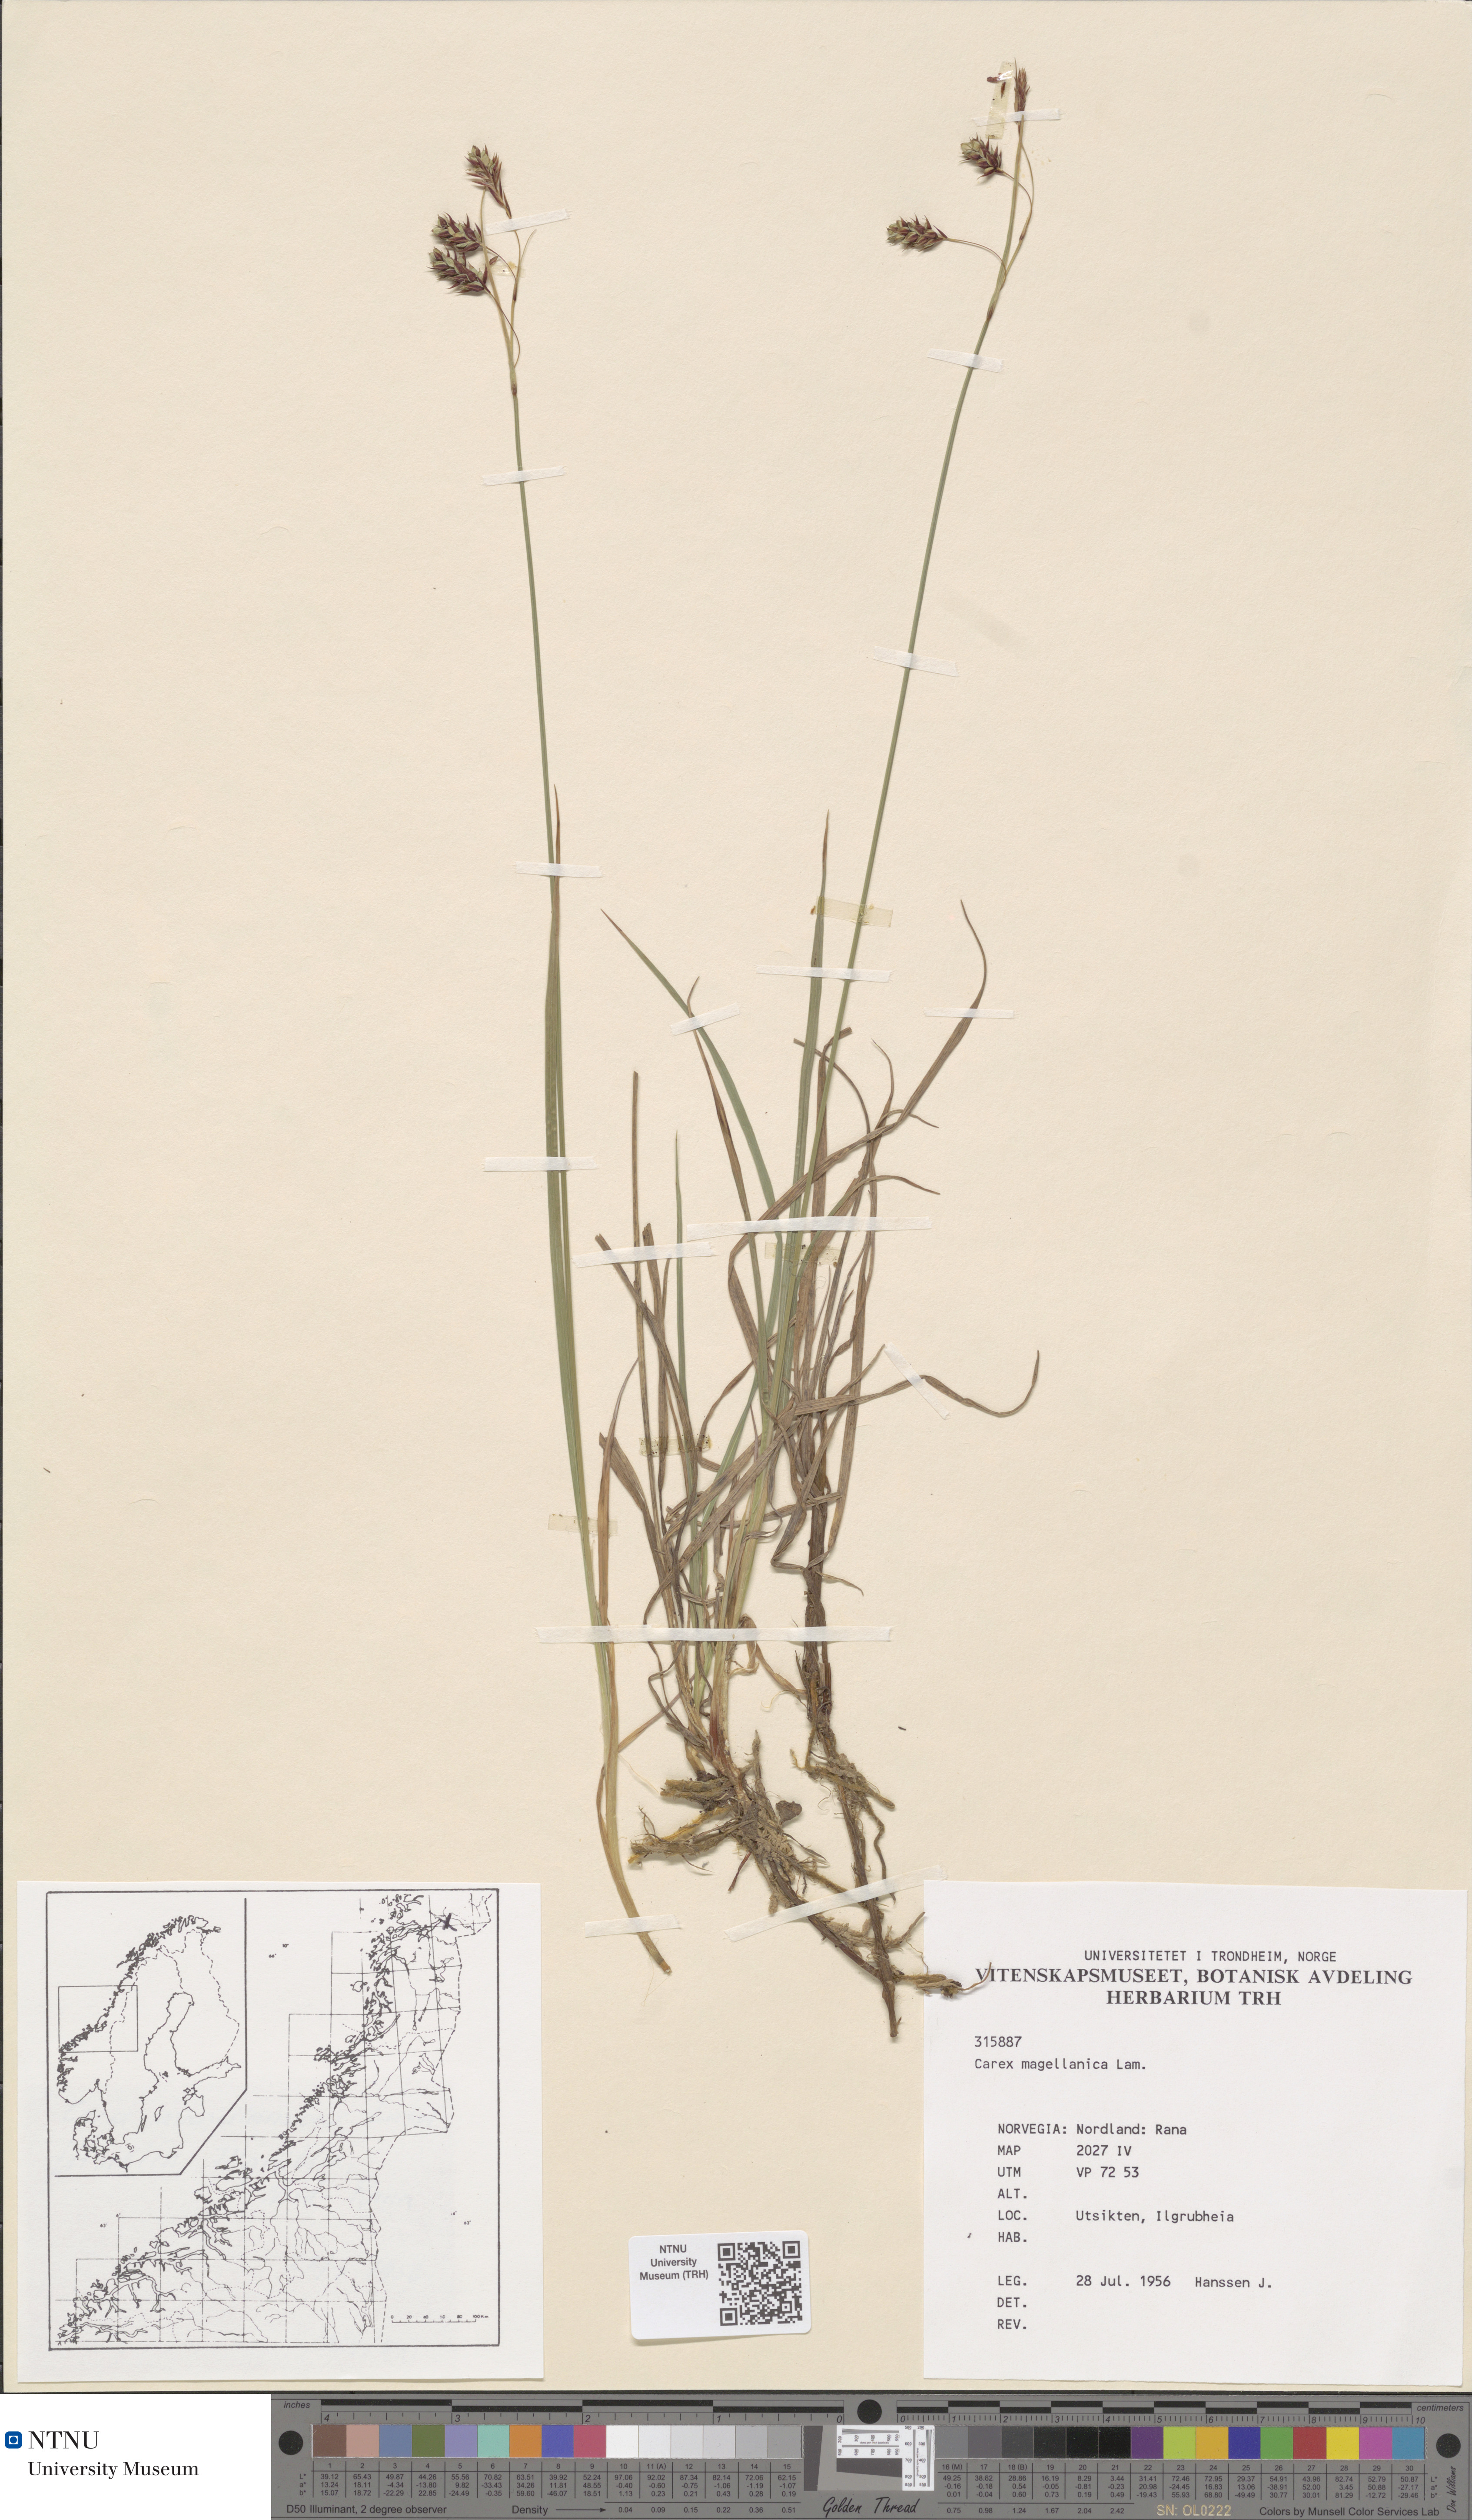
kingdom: Plantae
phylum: Tracheophyta
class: Liliopsida
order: Poales
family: Cyperaceae
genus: Carex
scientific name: Carex magellanica
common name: Bog sedge
